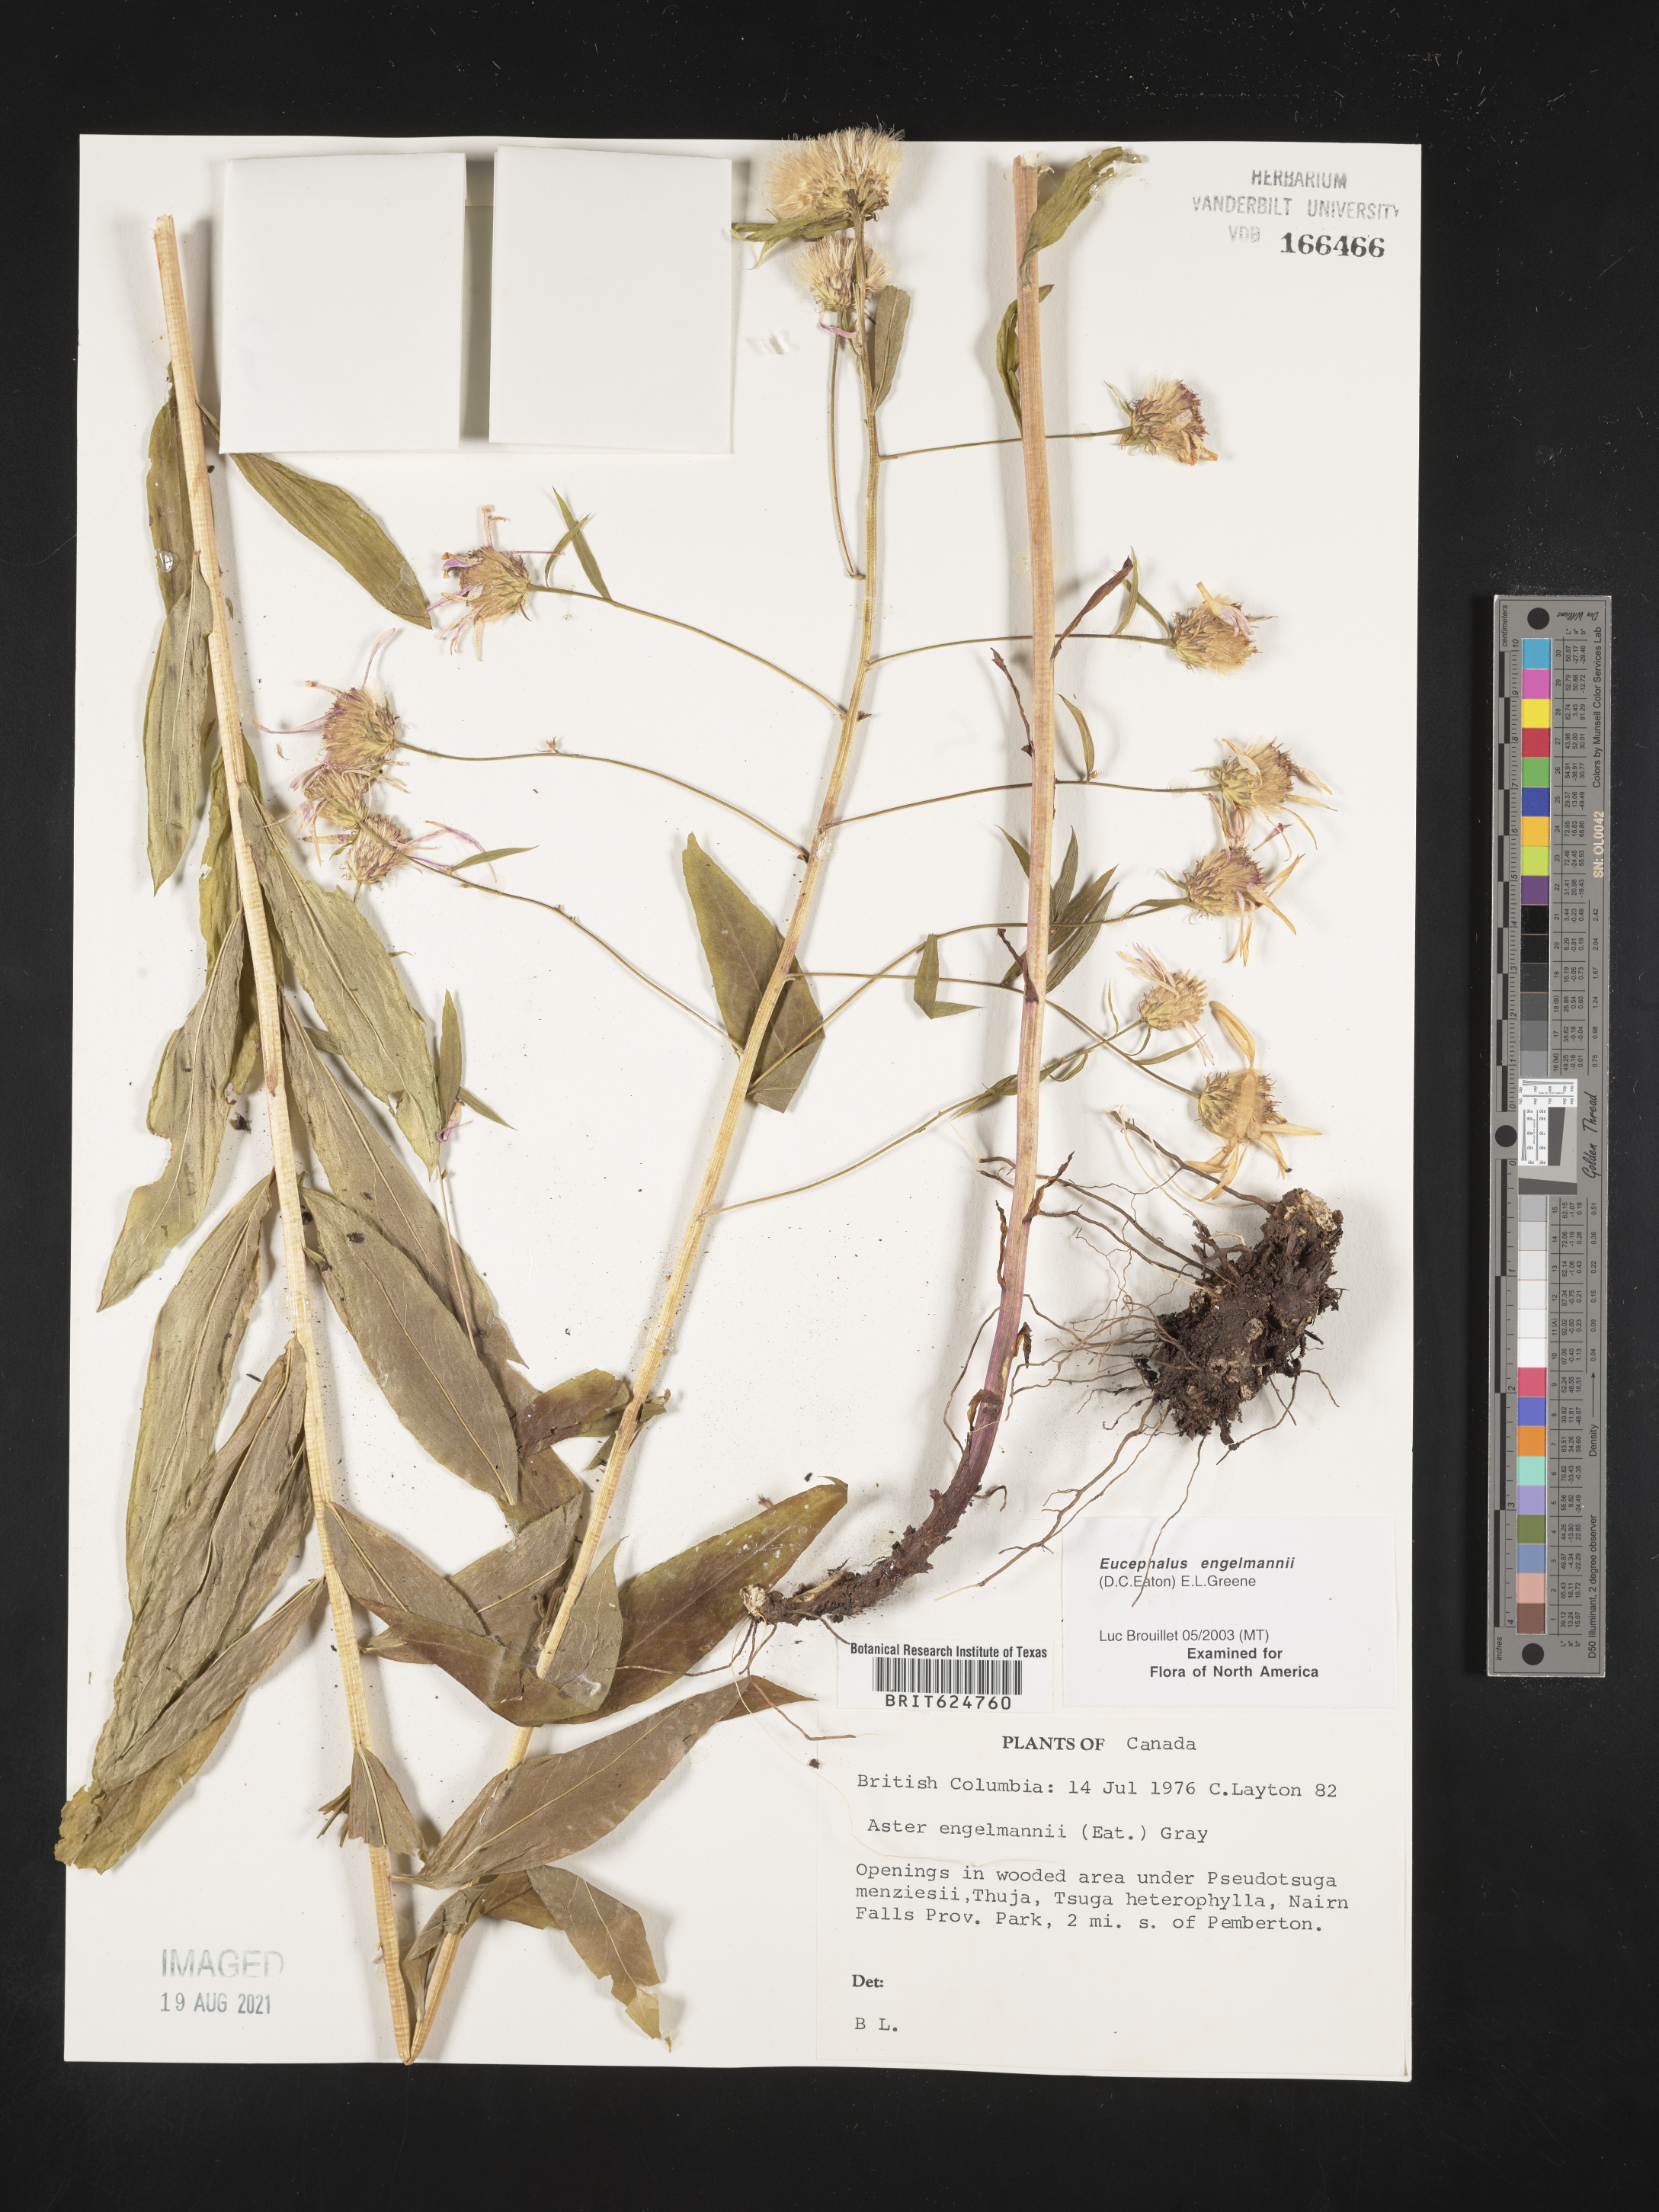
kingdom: Plantae
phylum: Tracheophyta
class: Magnoliopsida
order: Asterales
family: Asteraceae
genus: Eucephalus
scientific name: Eucephalus engelmannii
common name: Engelmann's aster
